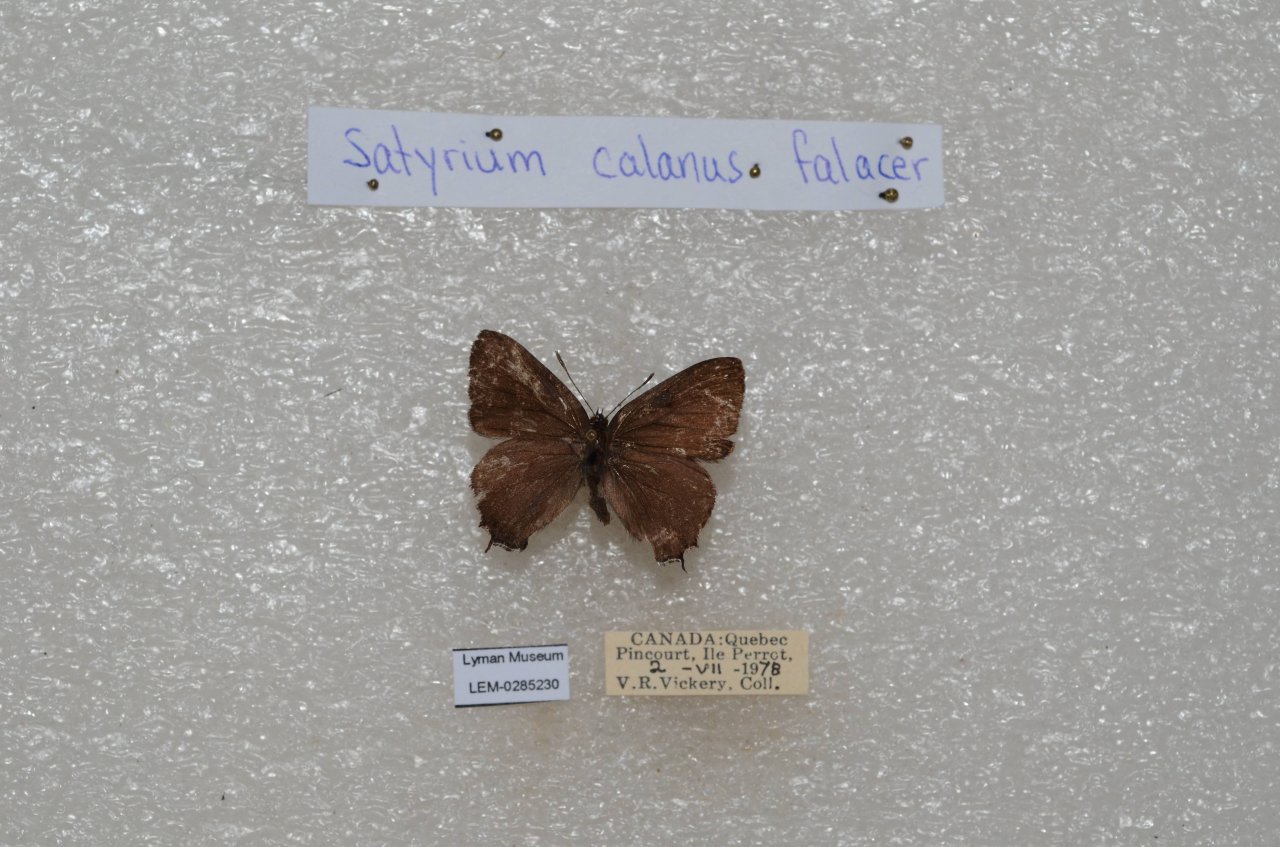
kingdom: Animalia
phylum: Arthropoda
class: Insecta
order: Lepidoptera
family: Lycaenidae
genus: Satyrium
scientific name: Satyrium calanus
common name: Banded Hairstreak
